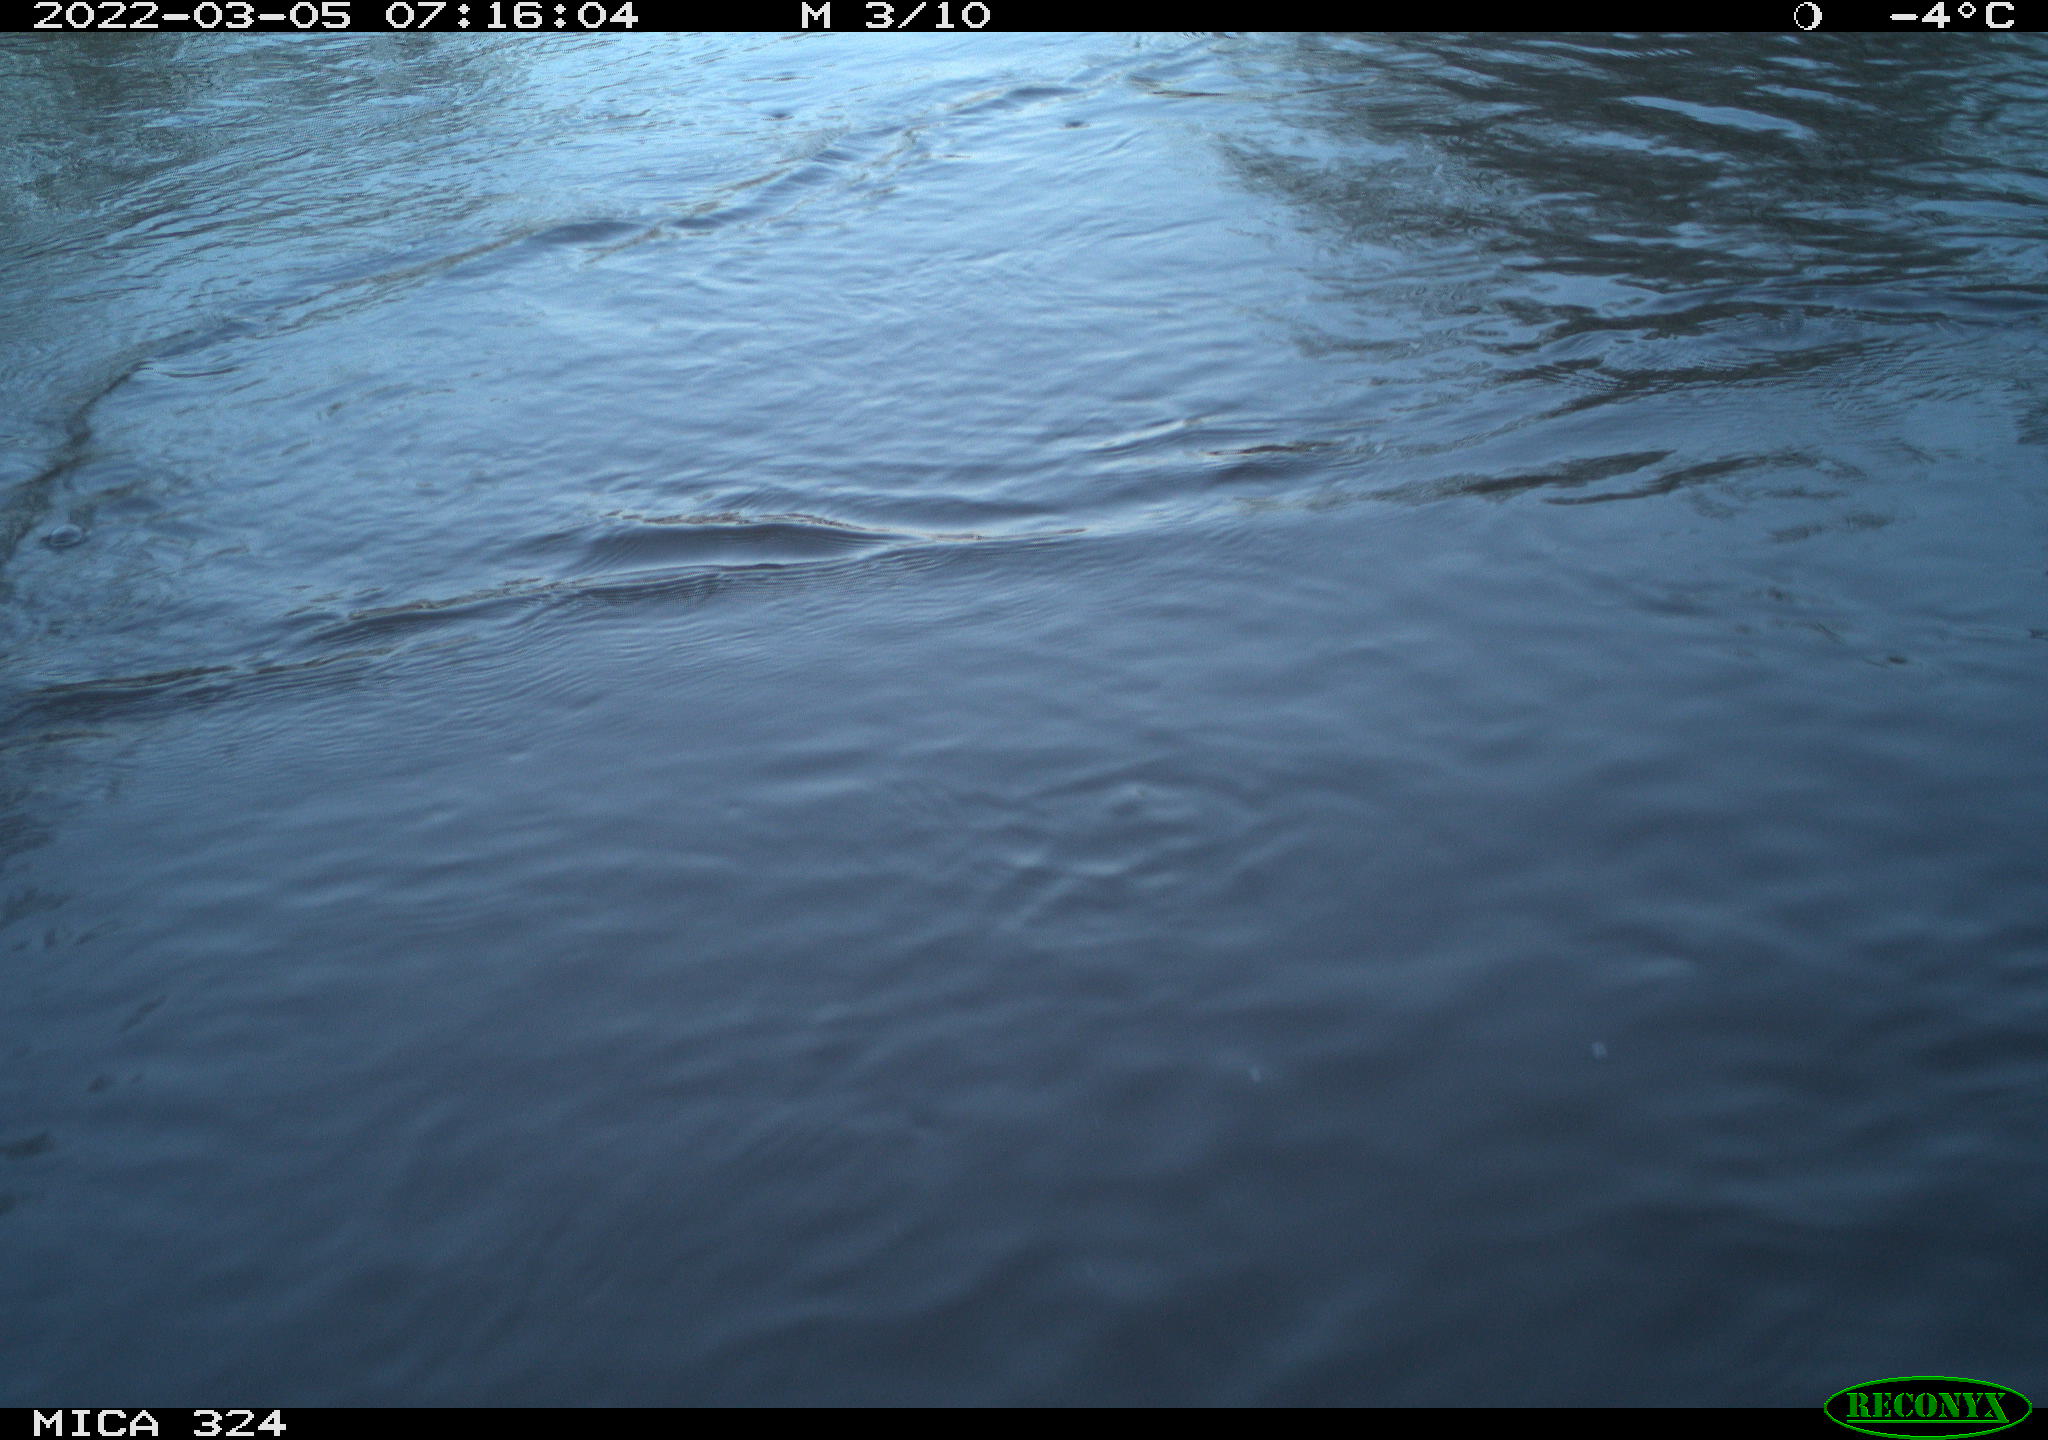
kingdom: Animalia
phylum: Chordata
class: Aves
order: Gruiformes
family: Rallidae
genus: Gallinula
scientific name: Gallinula chloropus
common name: Common moorhen
